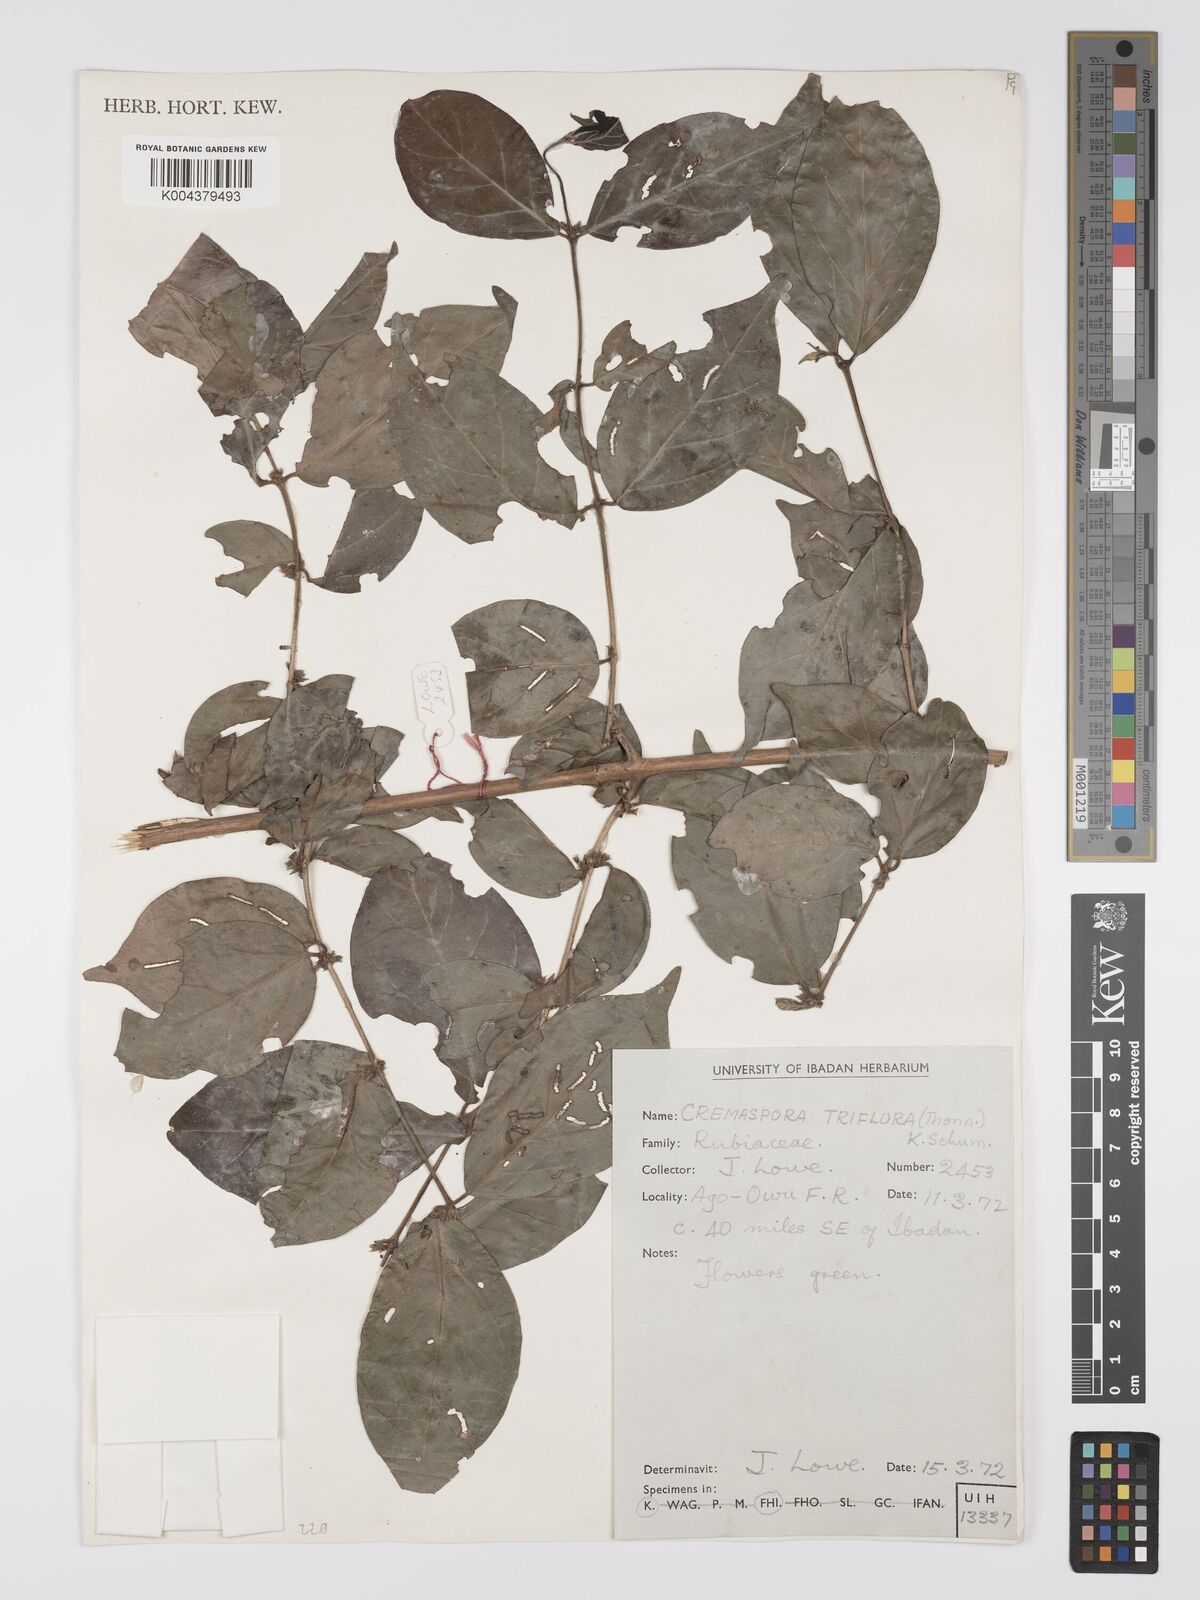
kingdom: Plantae
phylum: Tracheophyta
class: Magnoliopsida
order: Gentianales
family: Rubiaceae
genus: Cremaspora
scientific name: Cremaspora triflora
